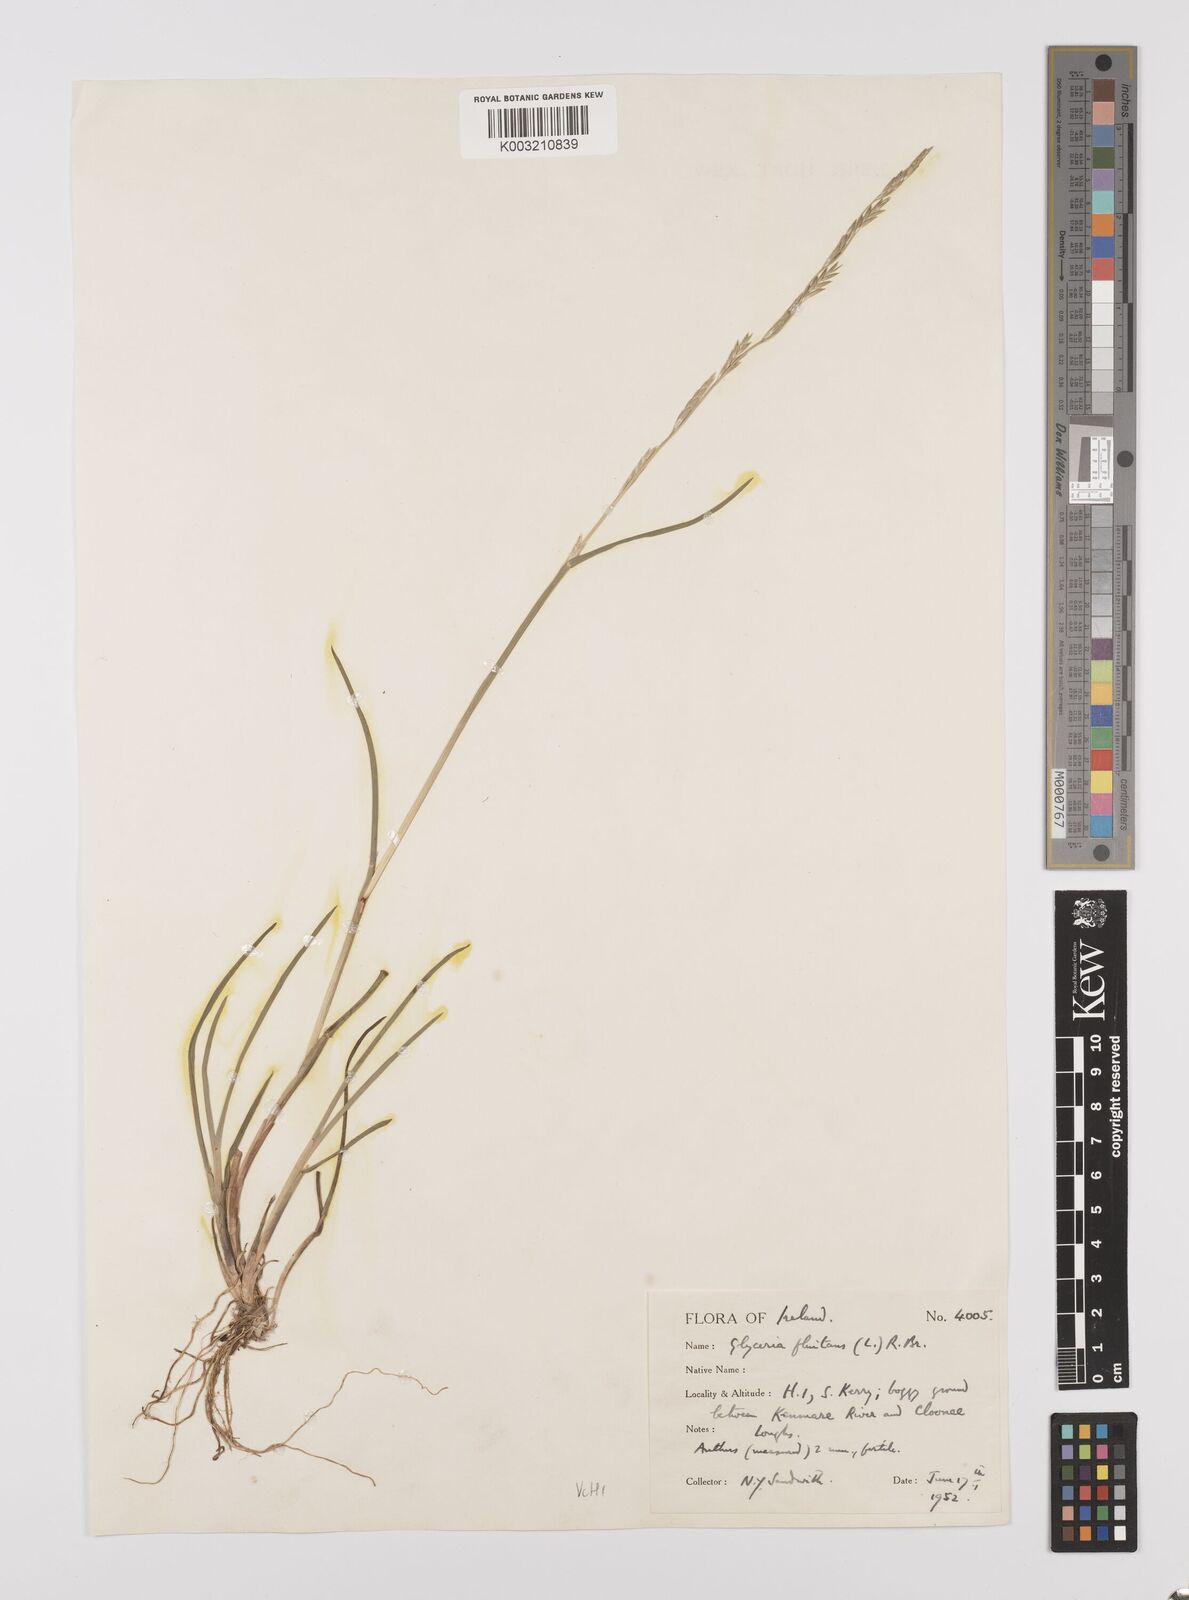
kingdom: Plantae
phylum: Tracheophyta
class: Liliopsida
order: Poales
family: Poaceae
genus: Glyceria
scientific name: Glyceria fluitans
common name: Floating sweet-grass
